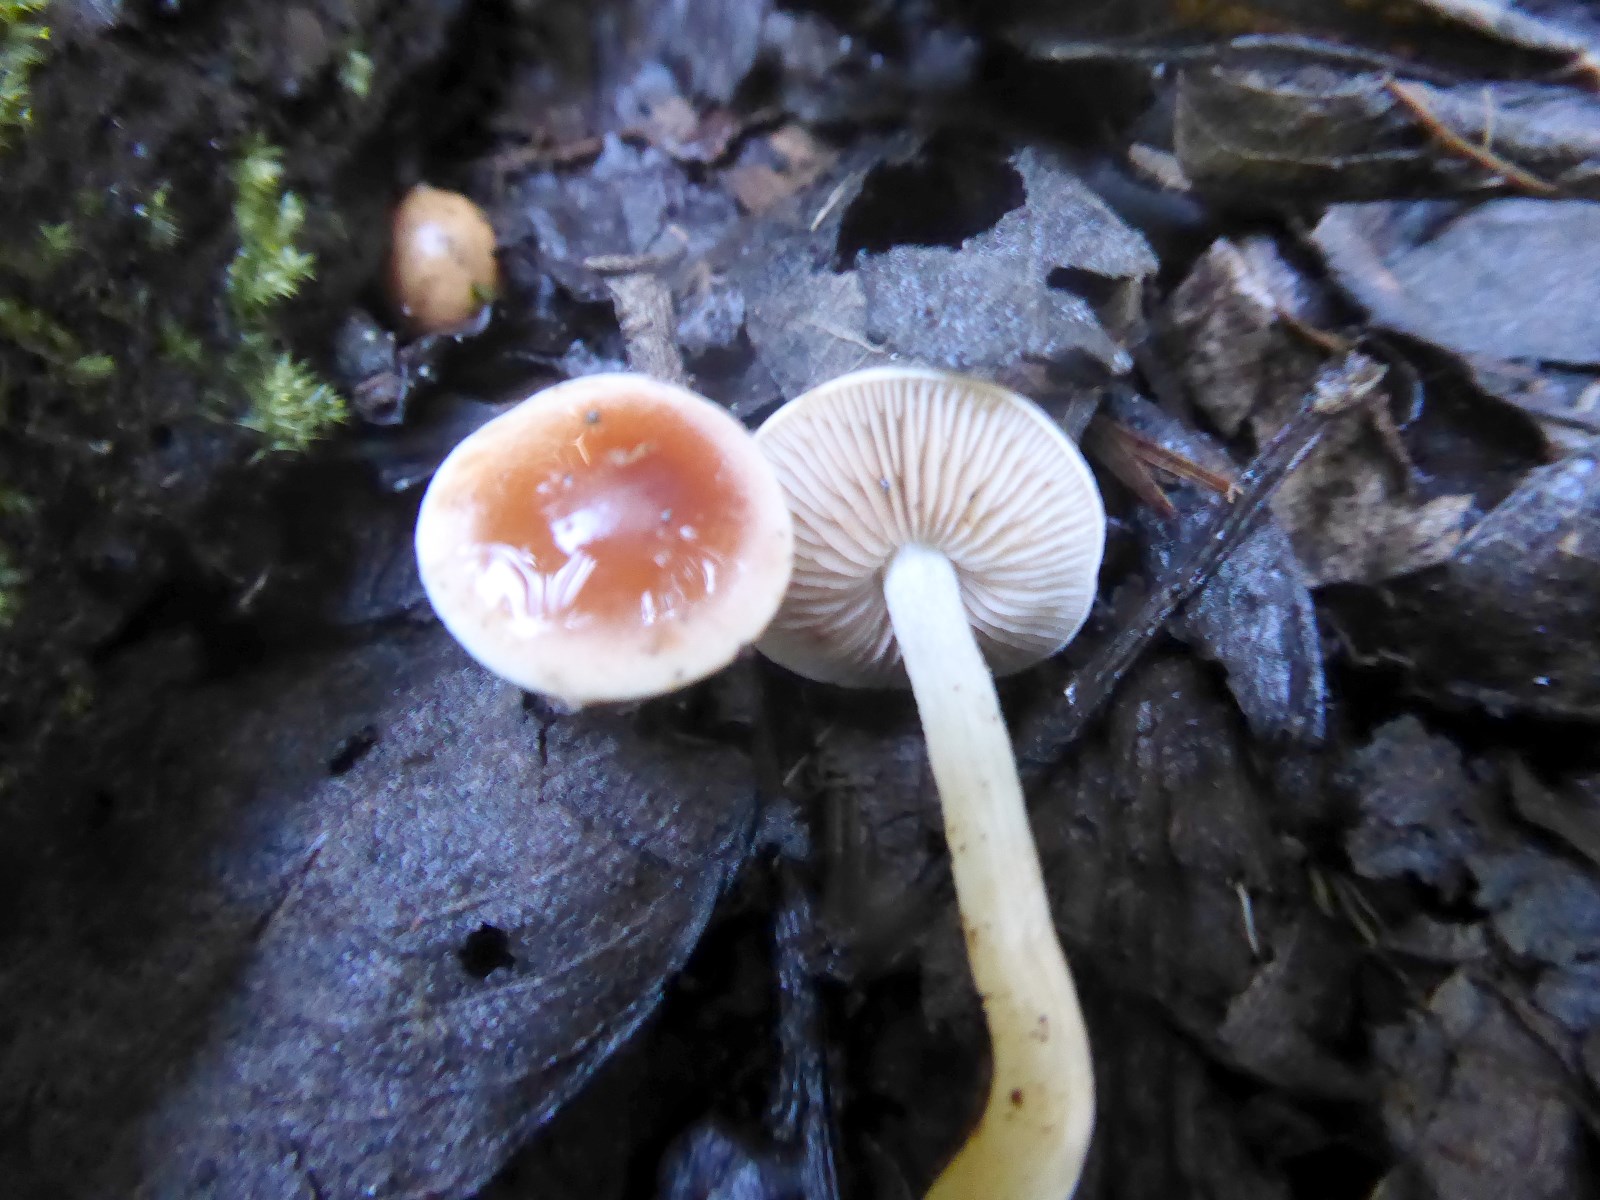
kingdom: Fungi
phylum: Basidiomycota
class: Agaricomycetes
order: Agaricales
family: Hymenogastraceae
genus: Hebeloma
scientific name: Hebeloma
